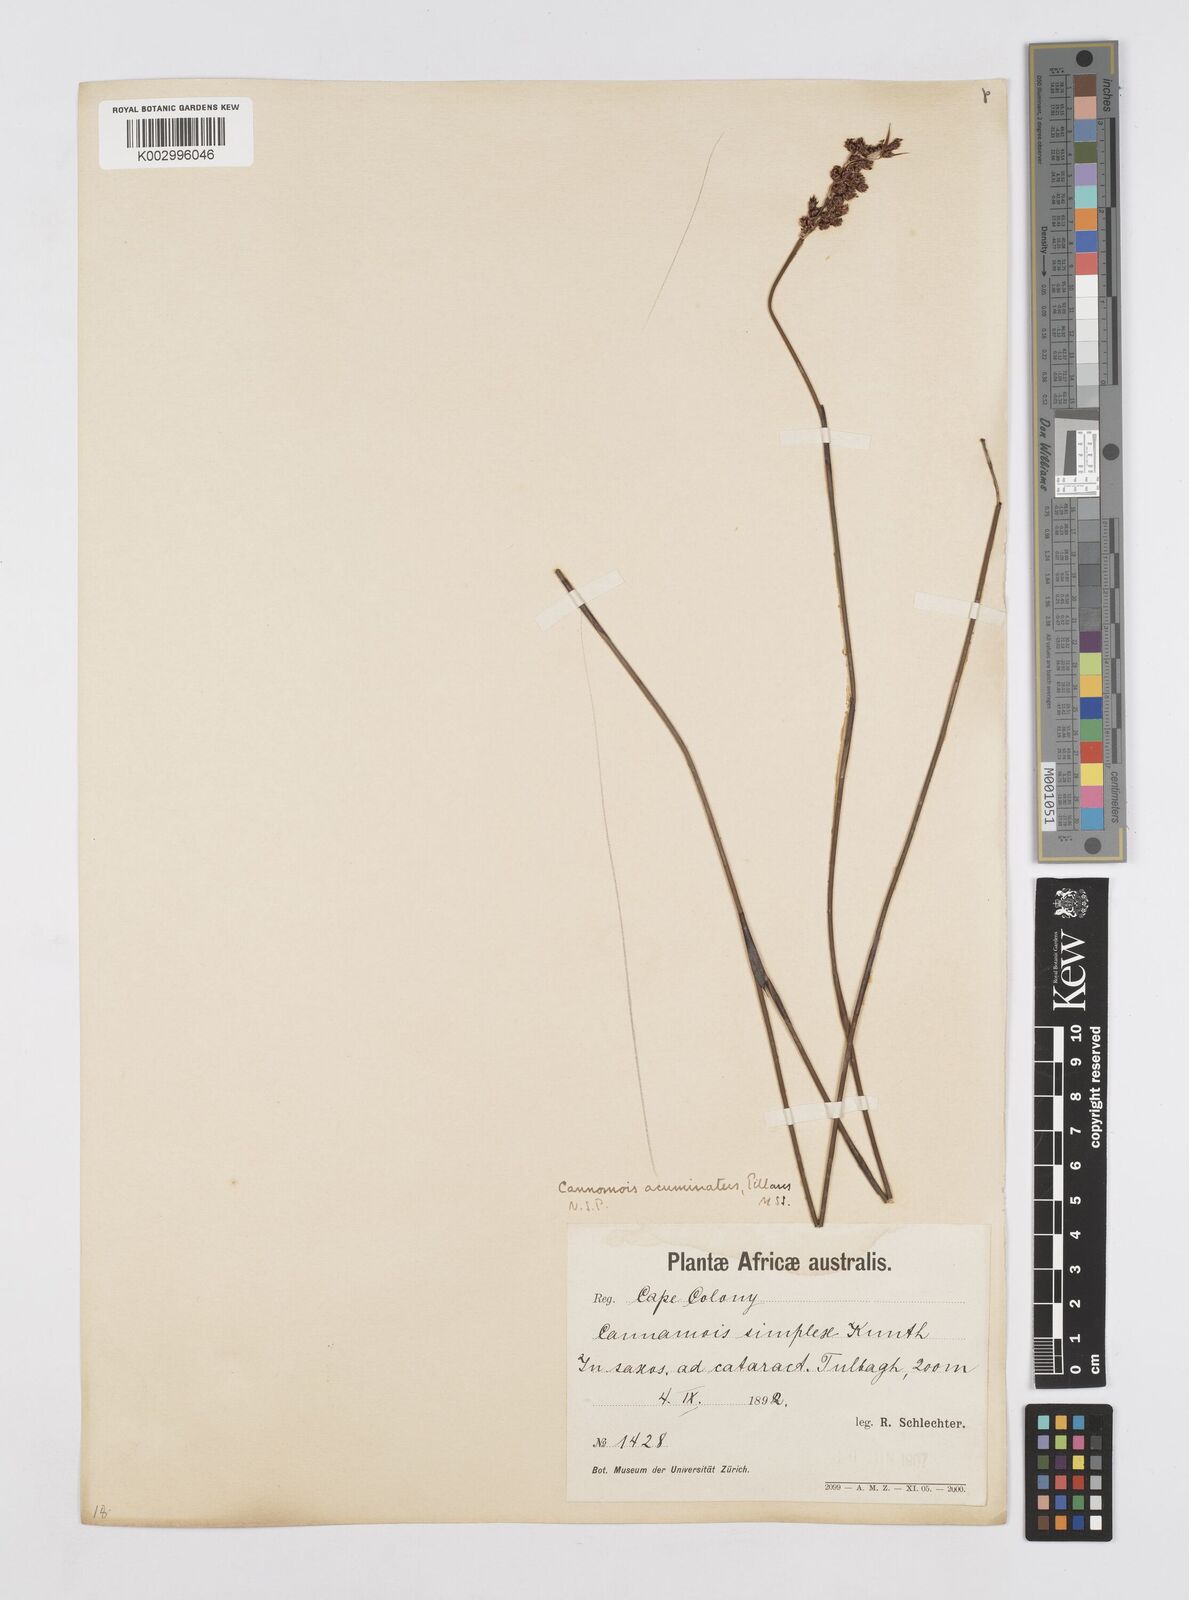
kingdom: Plantae
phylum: Tracheophyta
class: Liliopsida
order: Poales
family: Restionaceae
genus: Cannomois
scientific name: Cannomois parviflora
